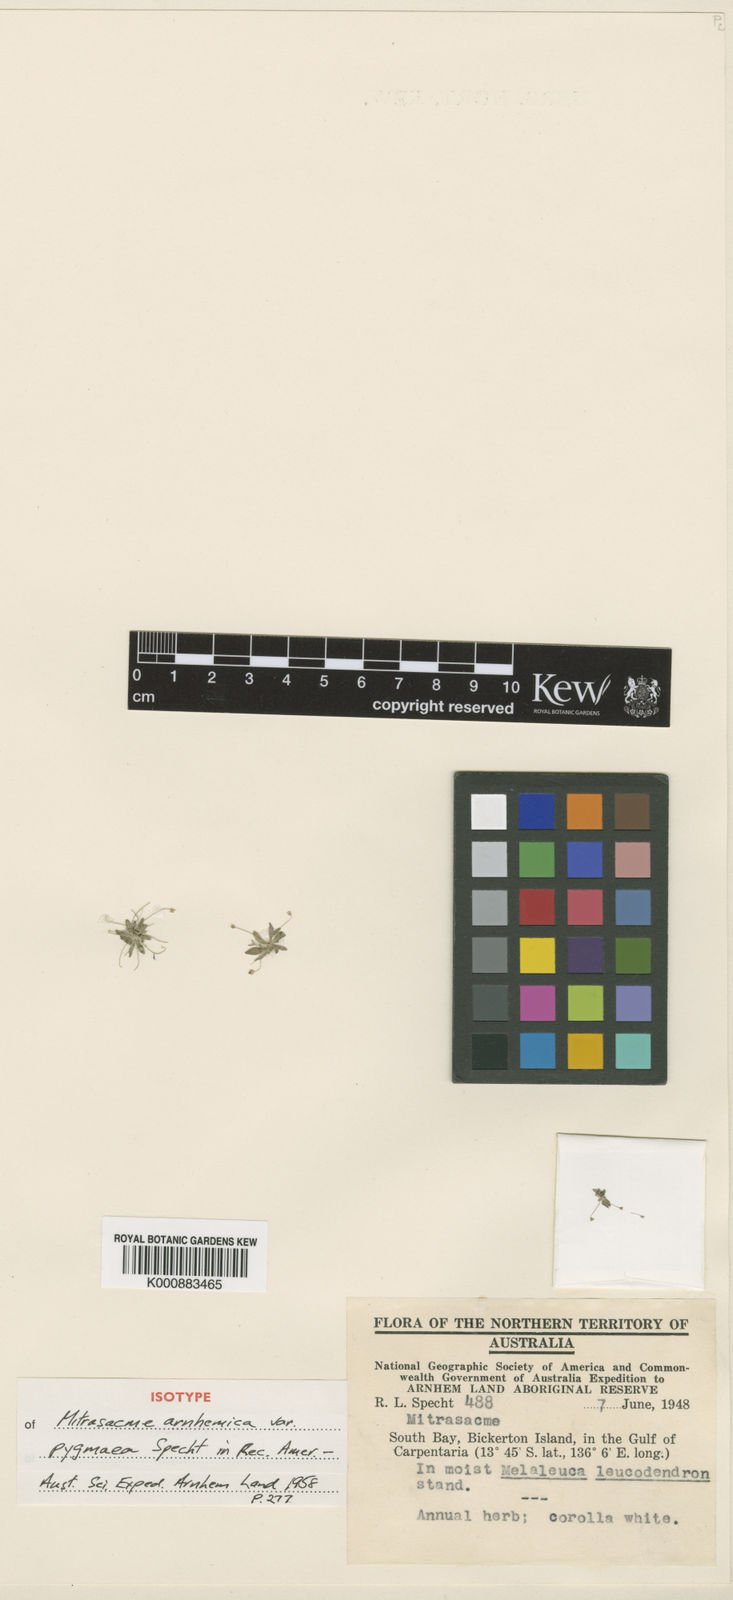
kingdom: Plantae
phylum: Tracheophyta
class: Magnoliopsida
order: Gentianales
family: Loganiaceae
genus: Mitrasacme
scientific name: Mitrasacme squamigera
